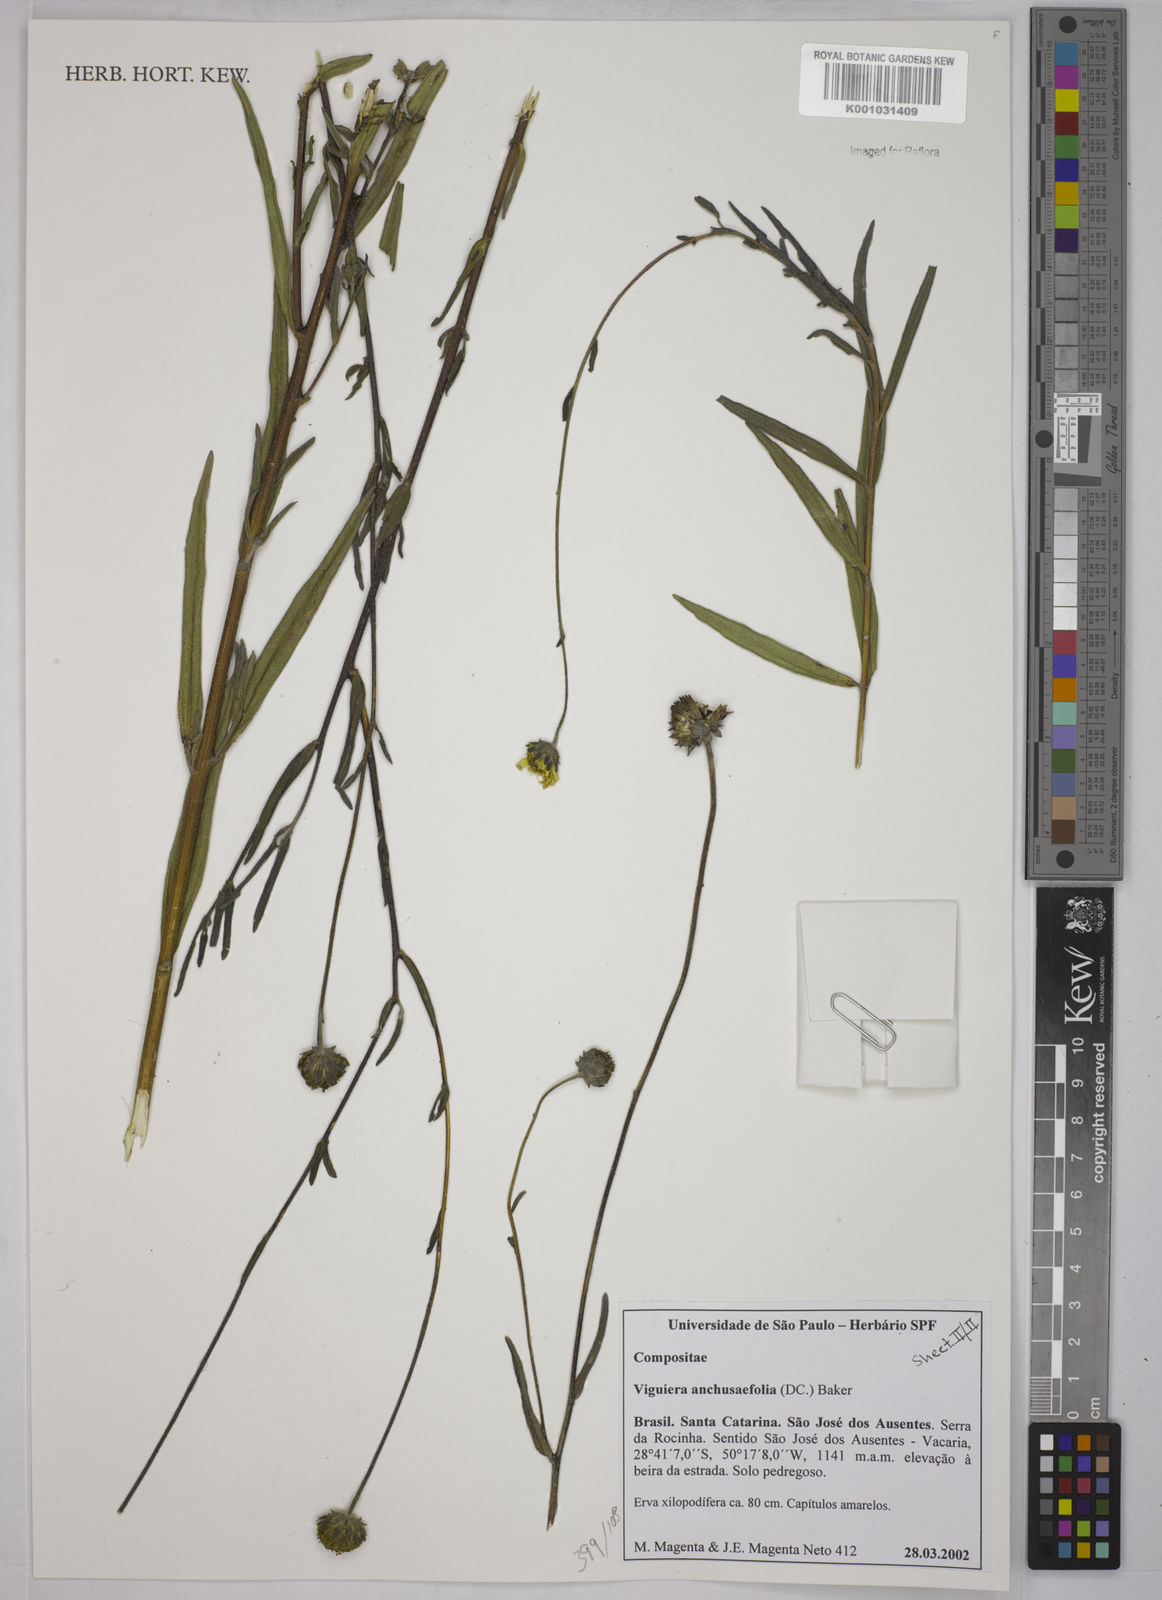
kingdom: Plantae
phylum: Tracheophyta
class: Magnoliopsida
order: Asterales
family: Asteraceae
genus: Aldama
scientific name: Aldama anchusifolia
